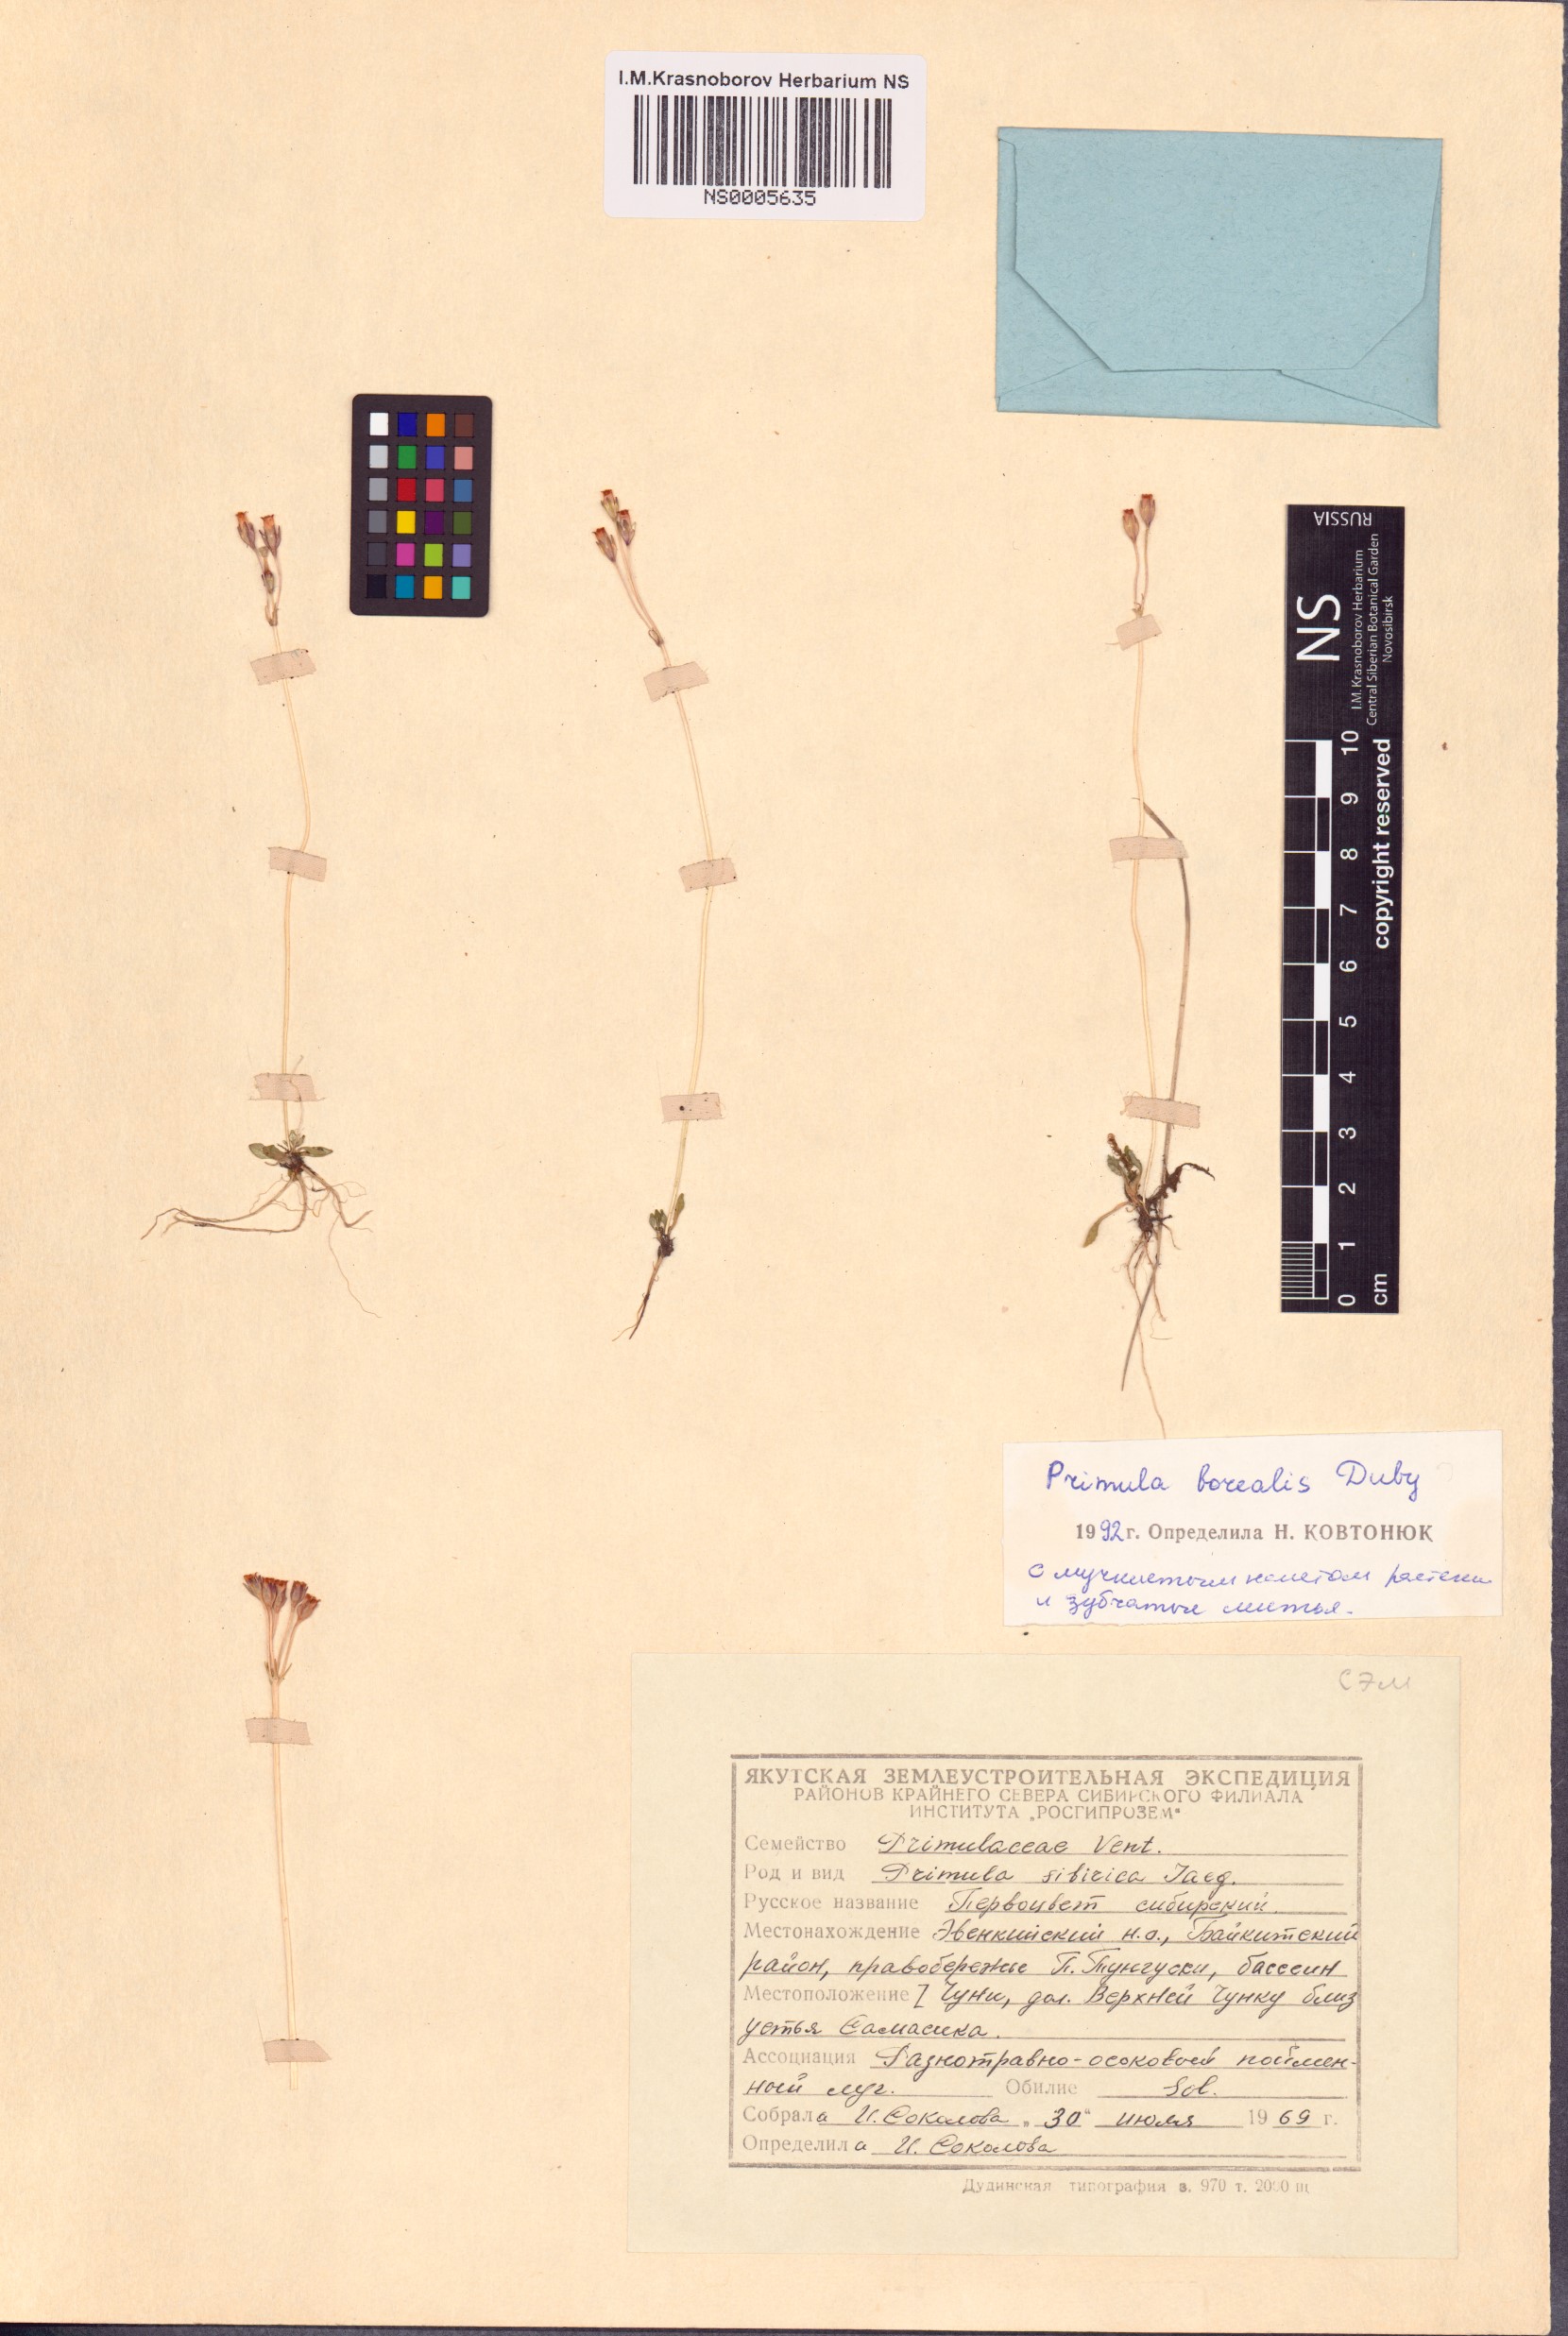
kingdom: Plantae
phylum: Tracheophyta
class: Magnoliopsida
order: Ericales
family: Primulaceae
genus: Primula
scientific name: Primula borealis
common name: Northern primrose
